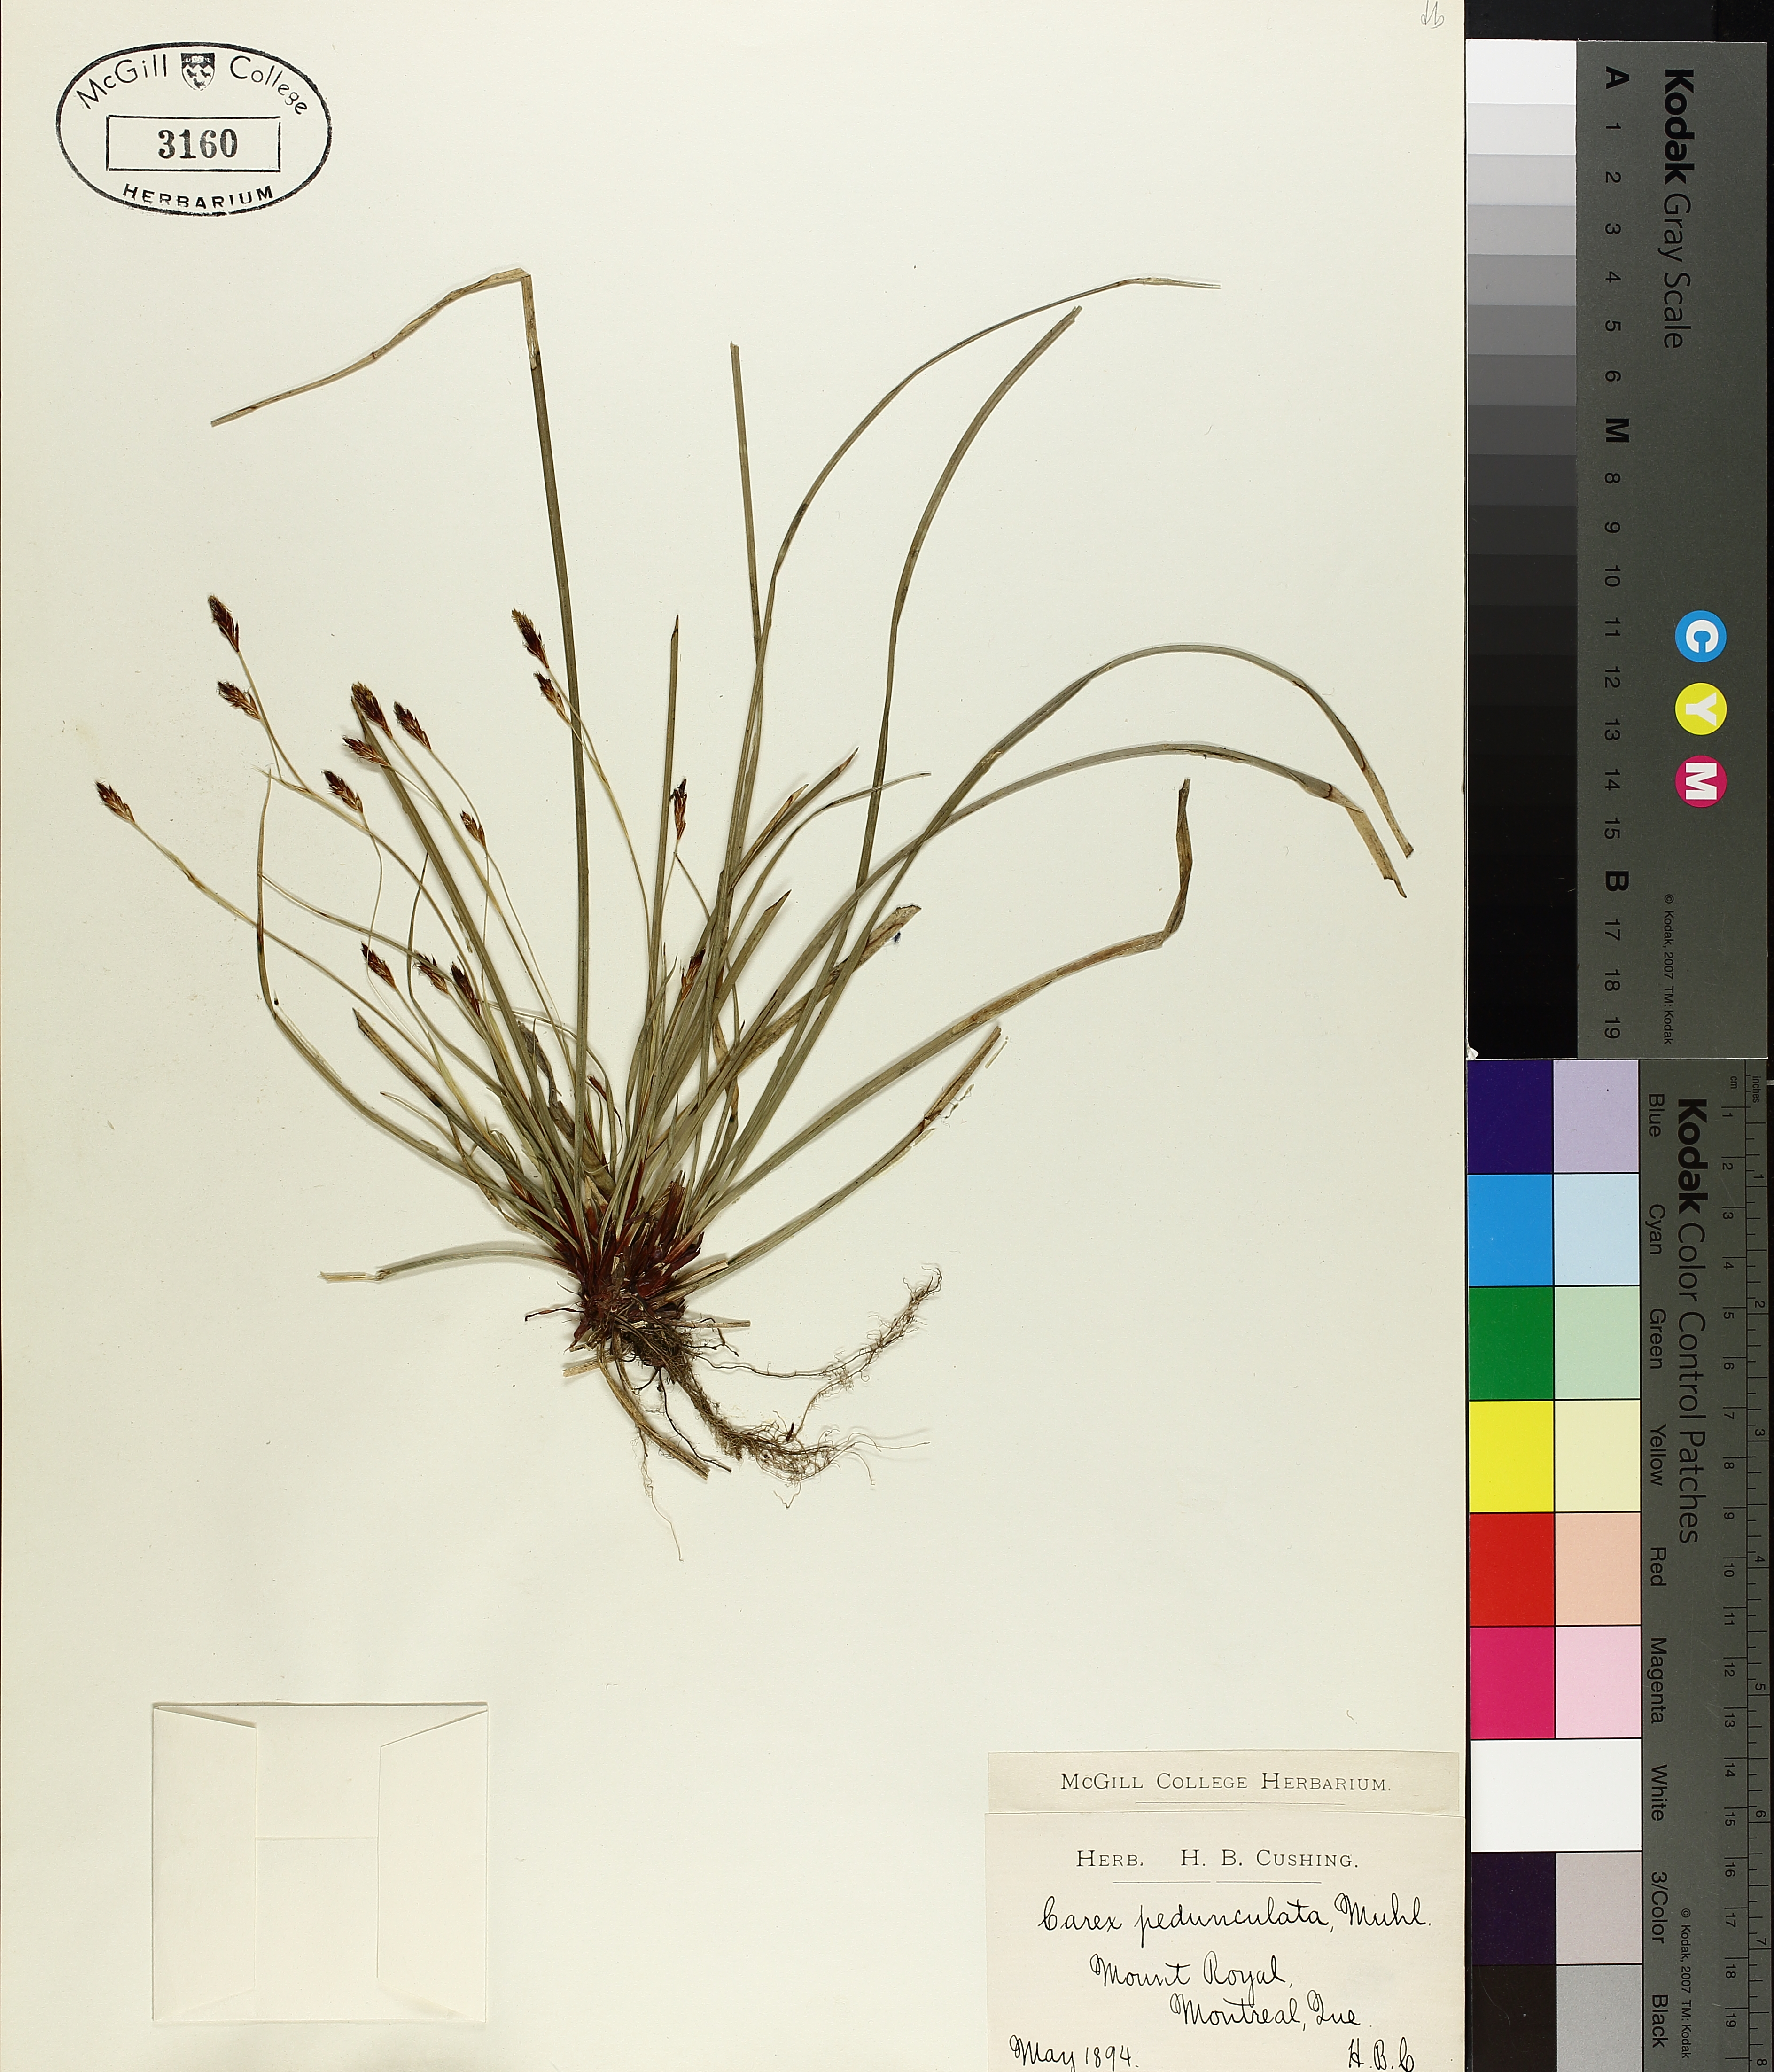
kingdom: Plantae
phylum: Tracheophyta
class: Liliopsida
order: Poales
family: Cyperaceae
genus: Carex
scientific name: Carex pedunculata
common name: Pedunculate sedge
